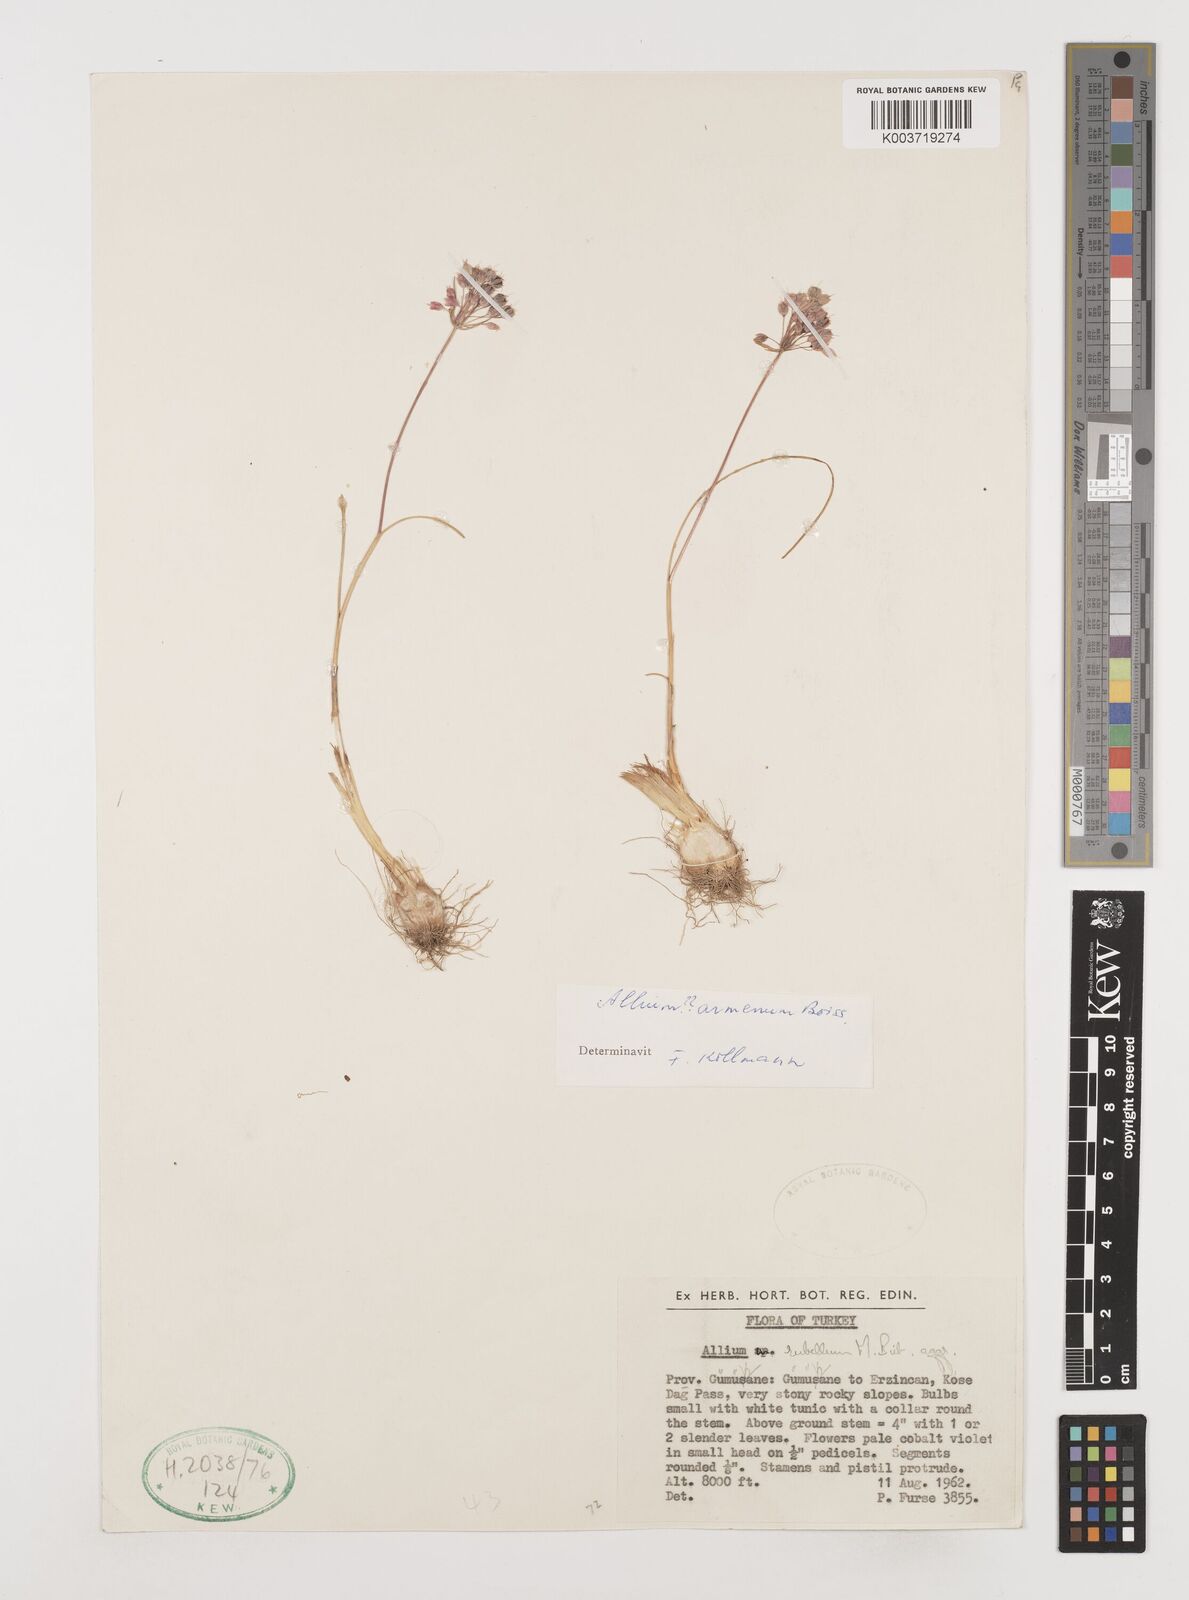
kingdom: Plantae
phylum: Tracheophyta
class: Liliopsida
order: Asparagales
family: Amaryllidaceae
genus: Allium
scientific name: Allium armenum
